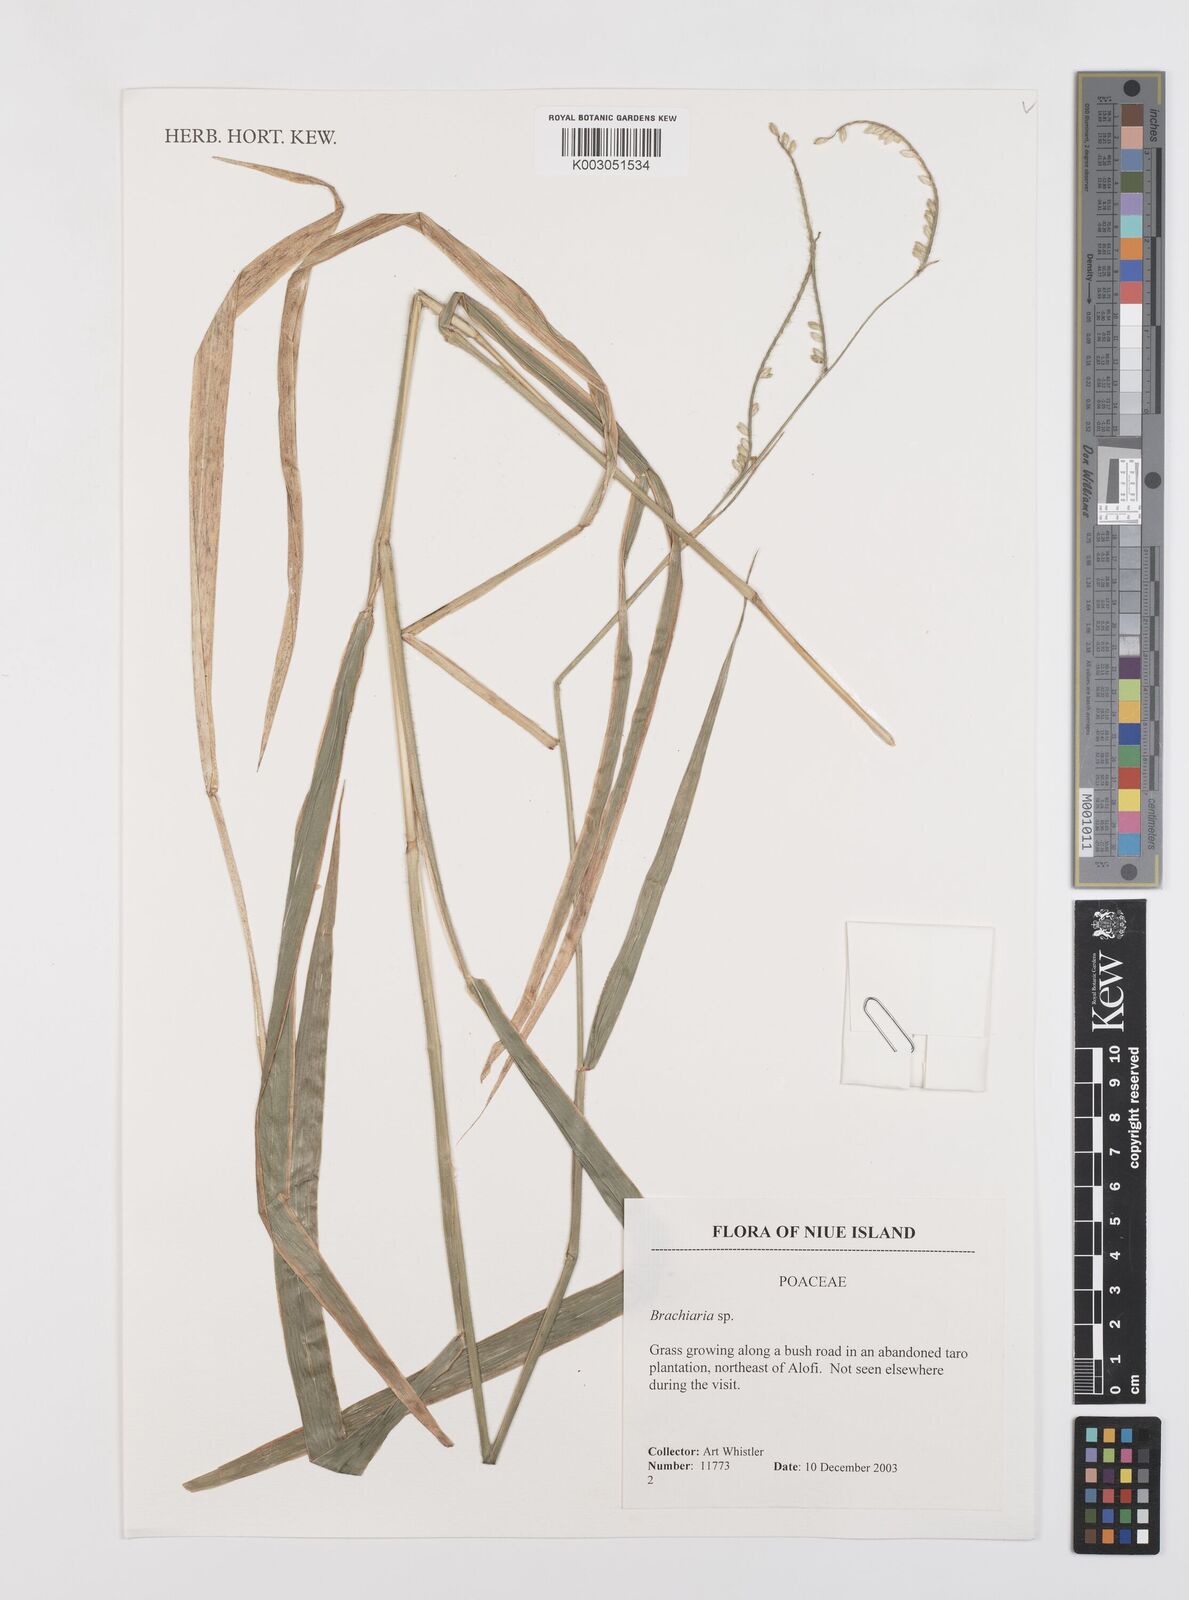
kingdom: Plantae
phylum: Tracheophyta
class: Liliopsida
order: Poales
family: Poaceae
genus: Brachiaria
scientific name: Brachiaria
